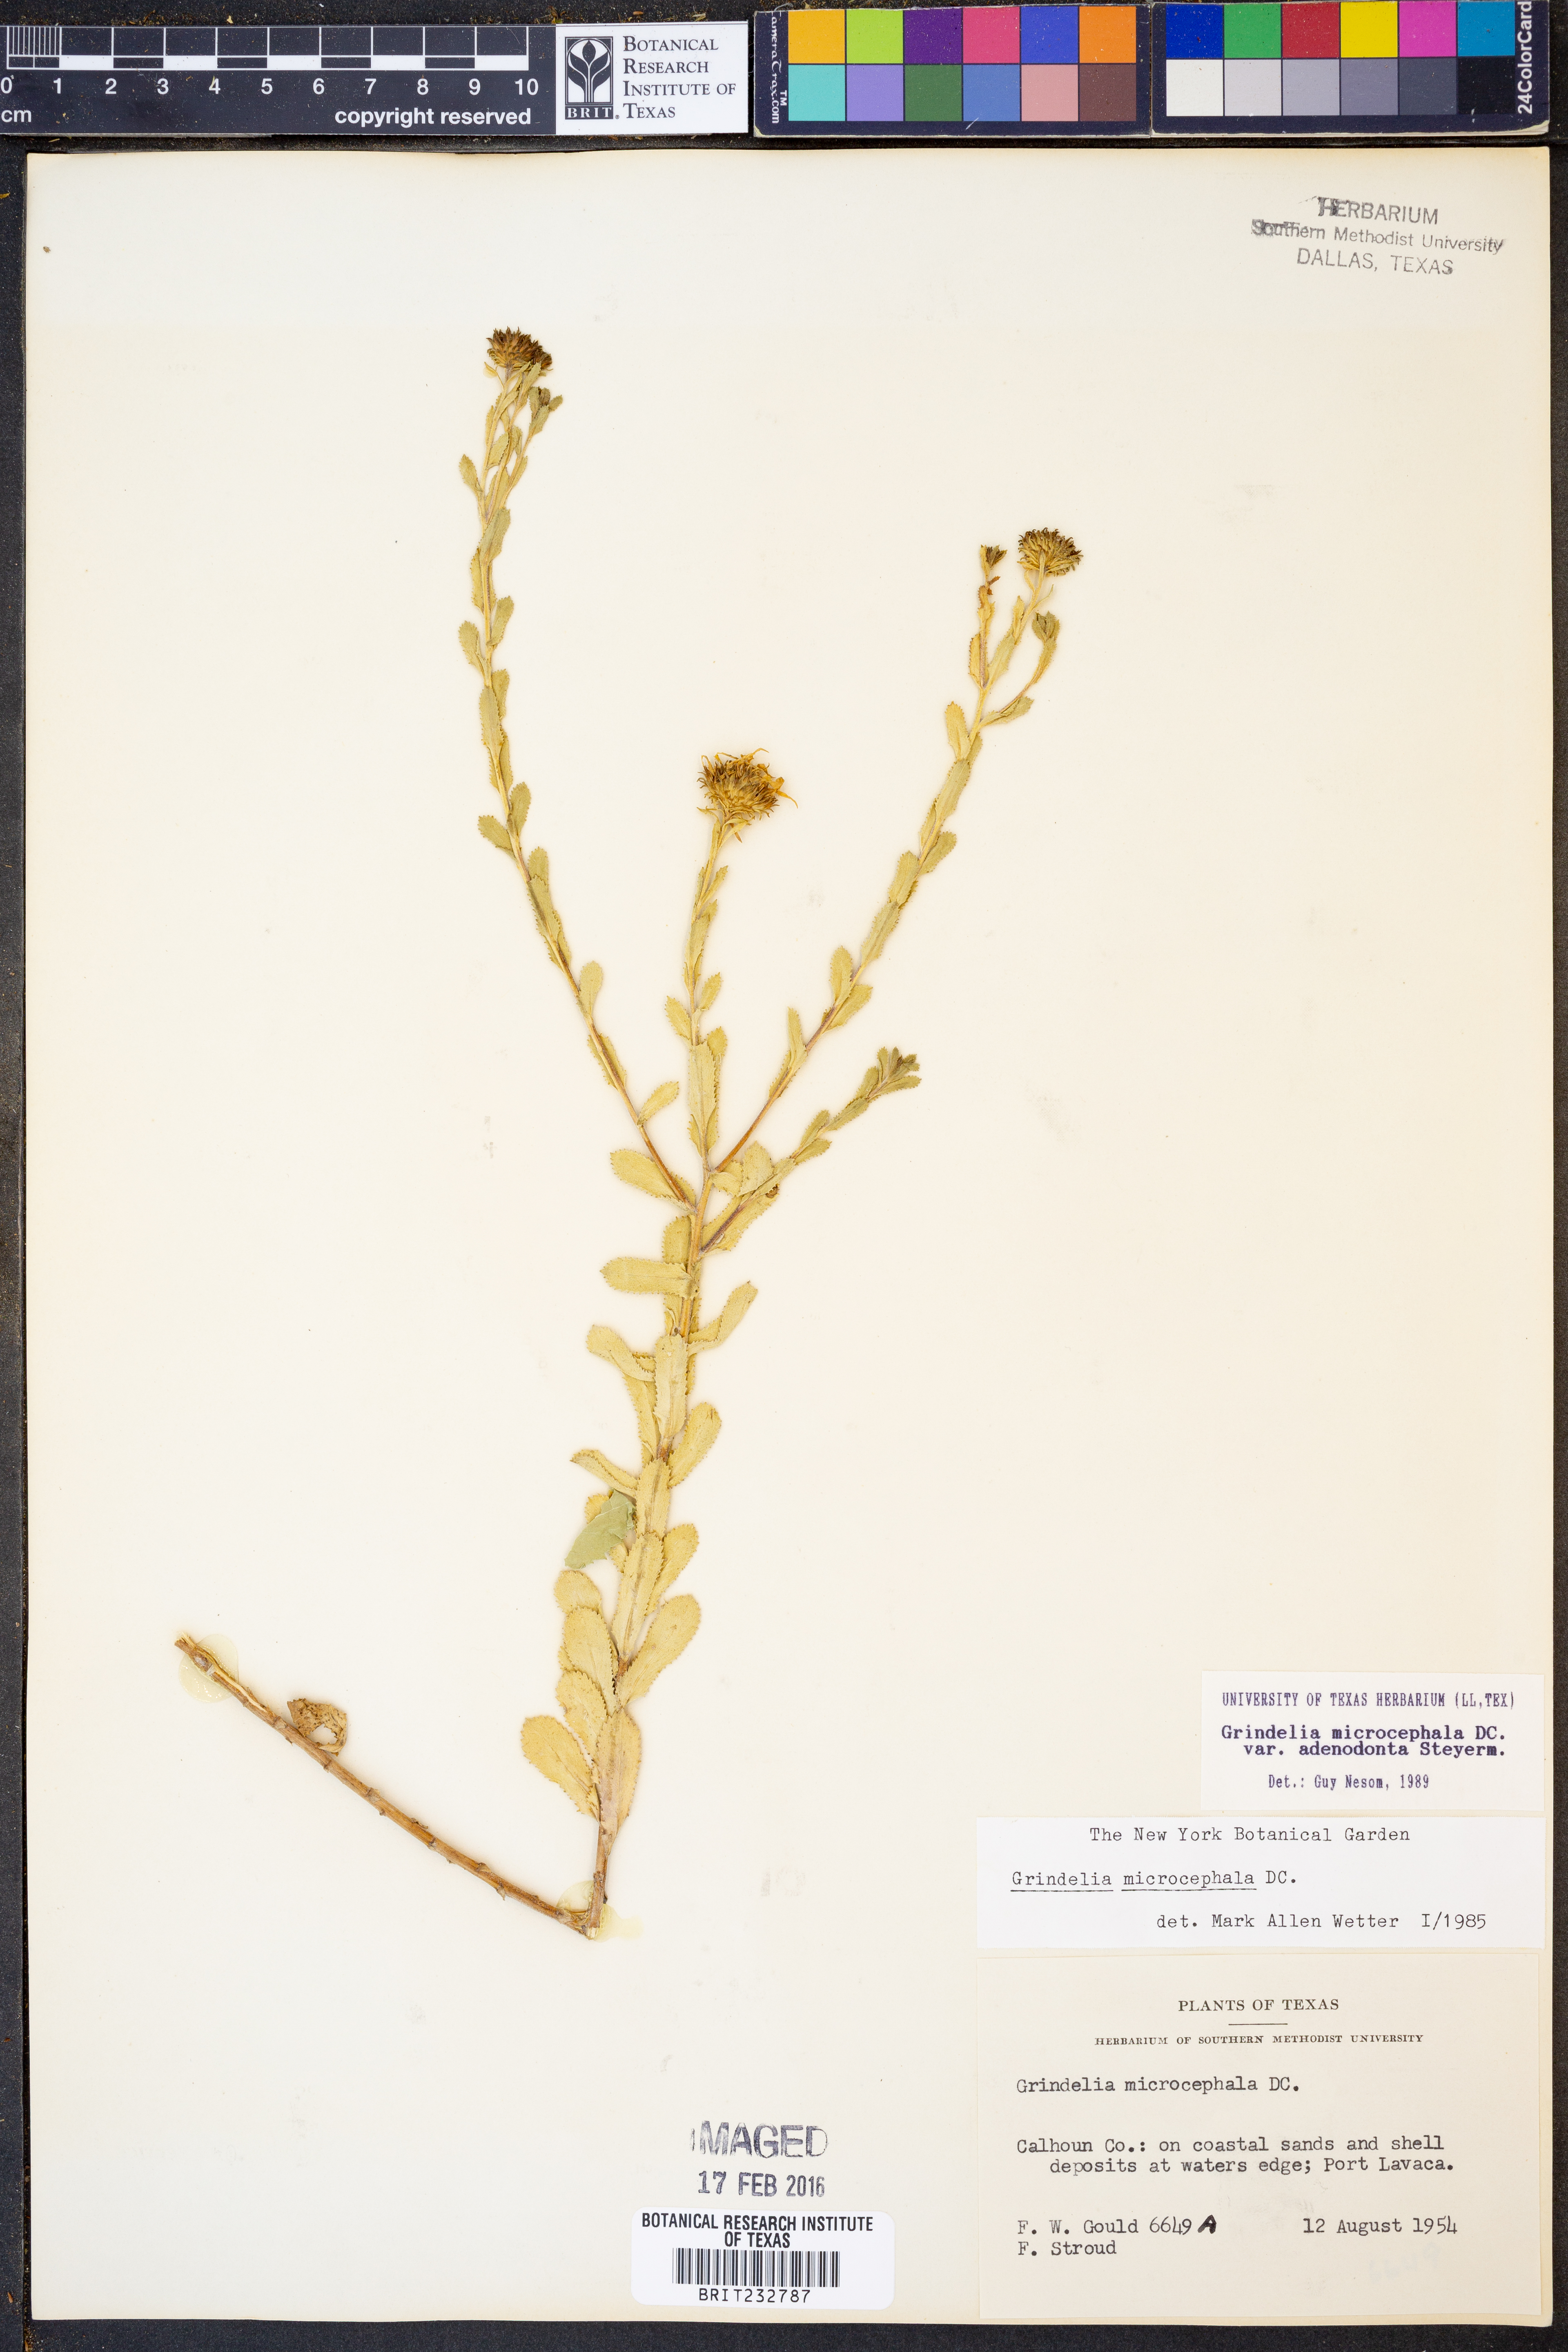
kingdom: Plantae
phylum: Tracheophyta
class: Magnoliopsida
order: Asterales
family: Asteraceae
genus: Grindelia
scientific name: Grindelia adenodonta
